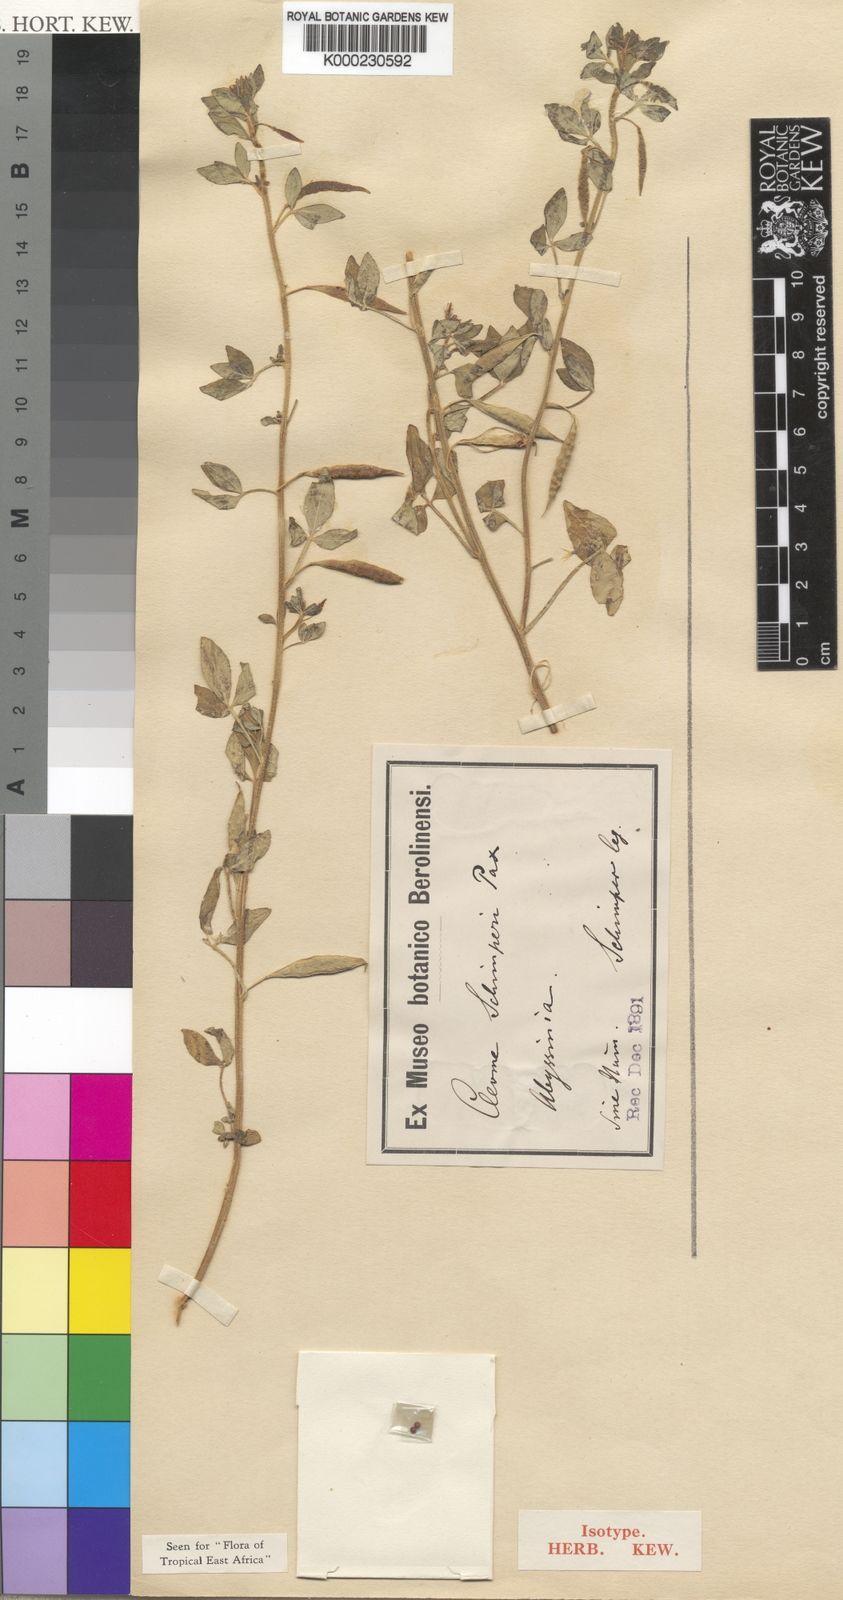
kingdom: Plantae
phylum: Tracheophyta
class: Magnoliopsida
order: Brassicales
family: Cleomaceae
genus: Sieruela
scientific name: Sieruela schimperi
